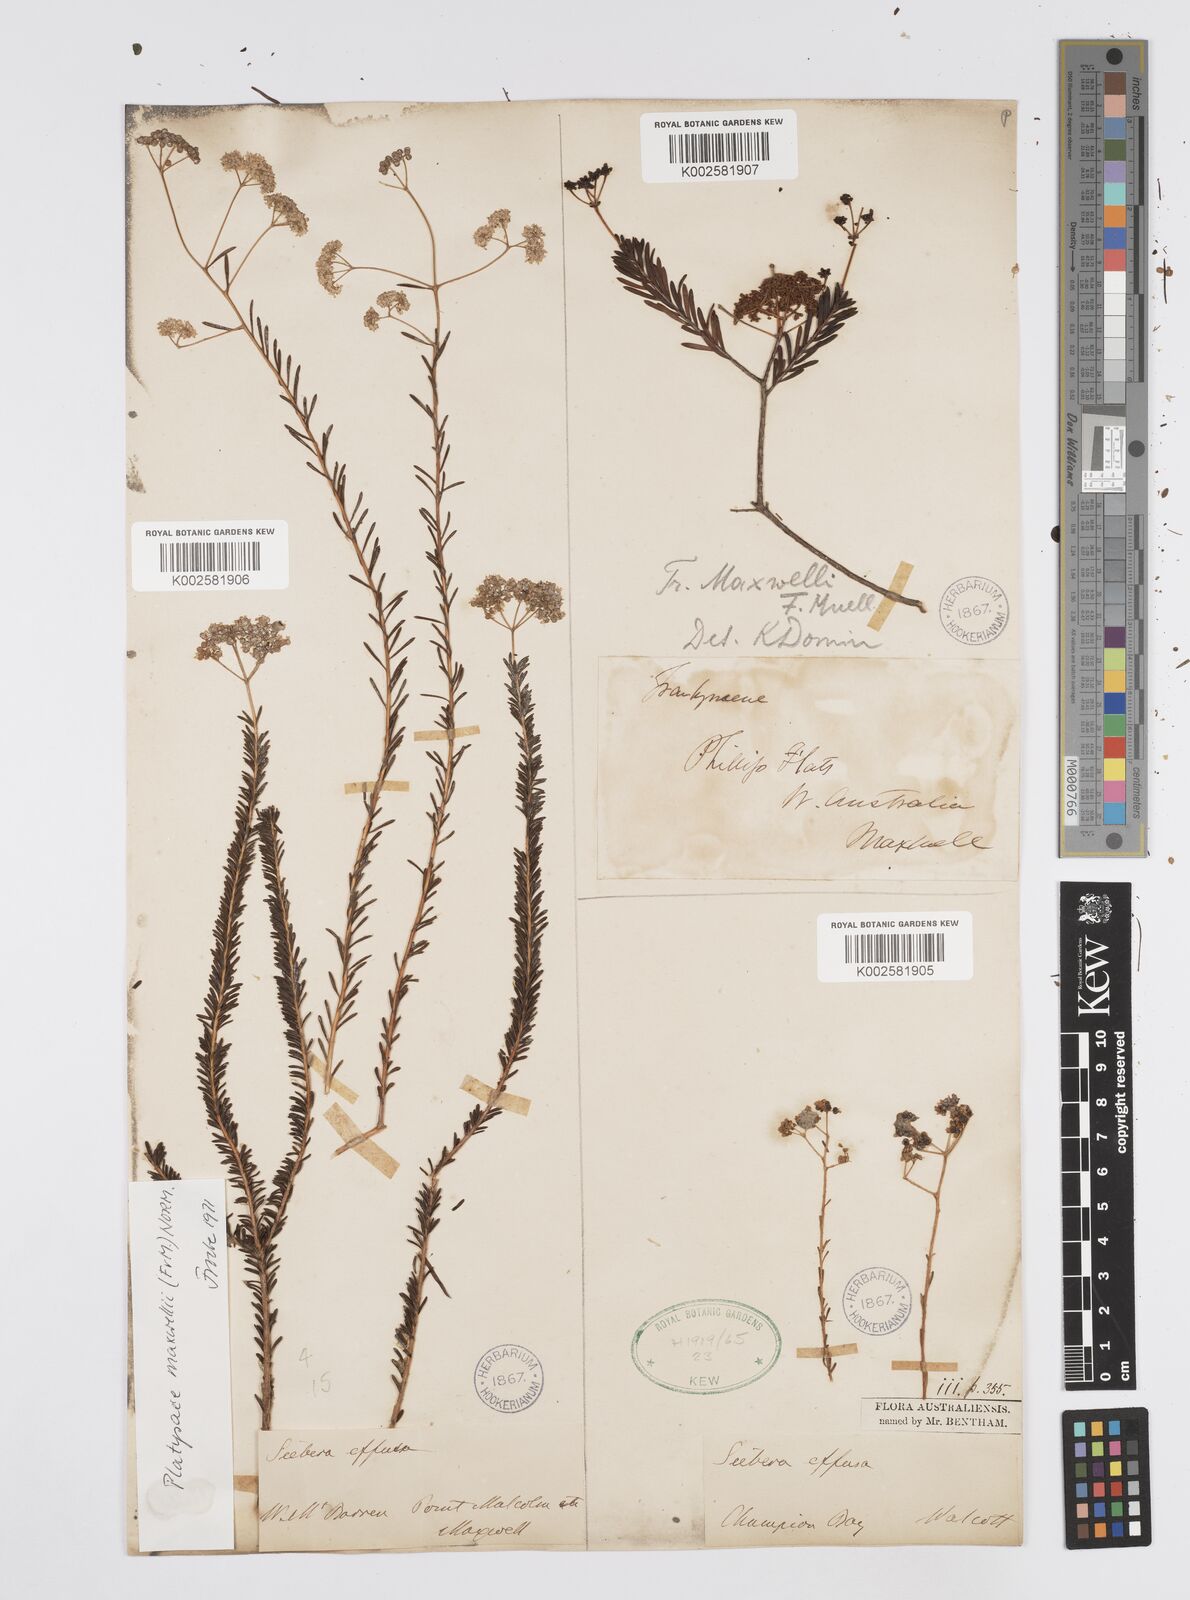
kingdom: Plantae
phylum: Tracheophyta
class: Magnoliopsida
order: Apiales
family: Apiaceae
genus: Platysace
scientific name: Platysace maxwellii
